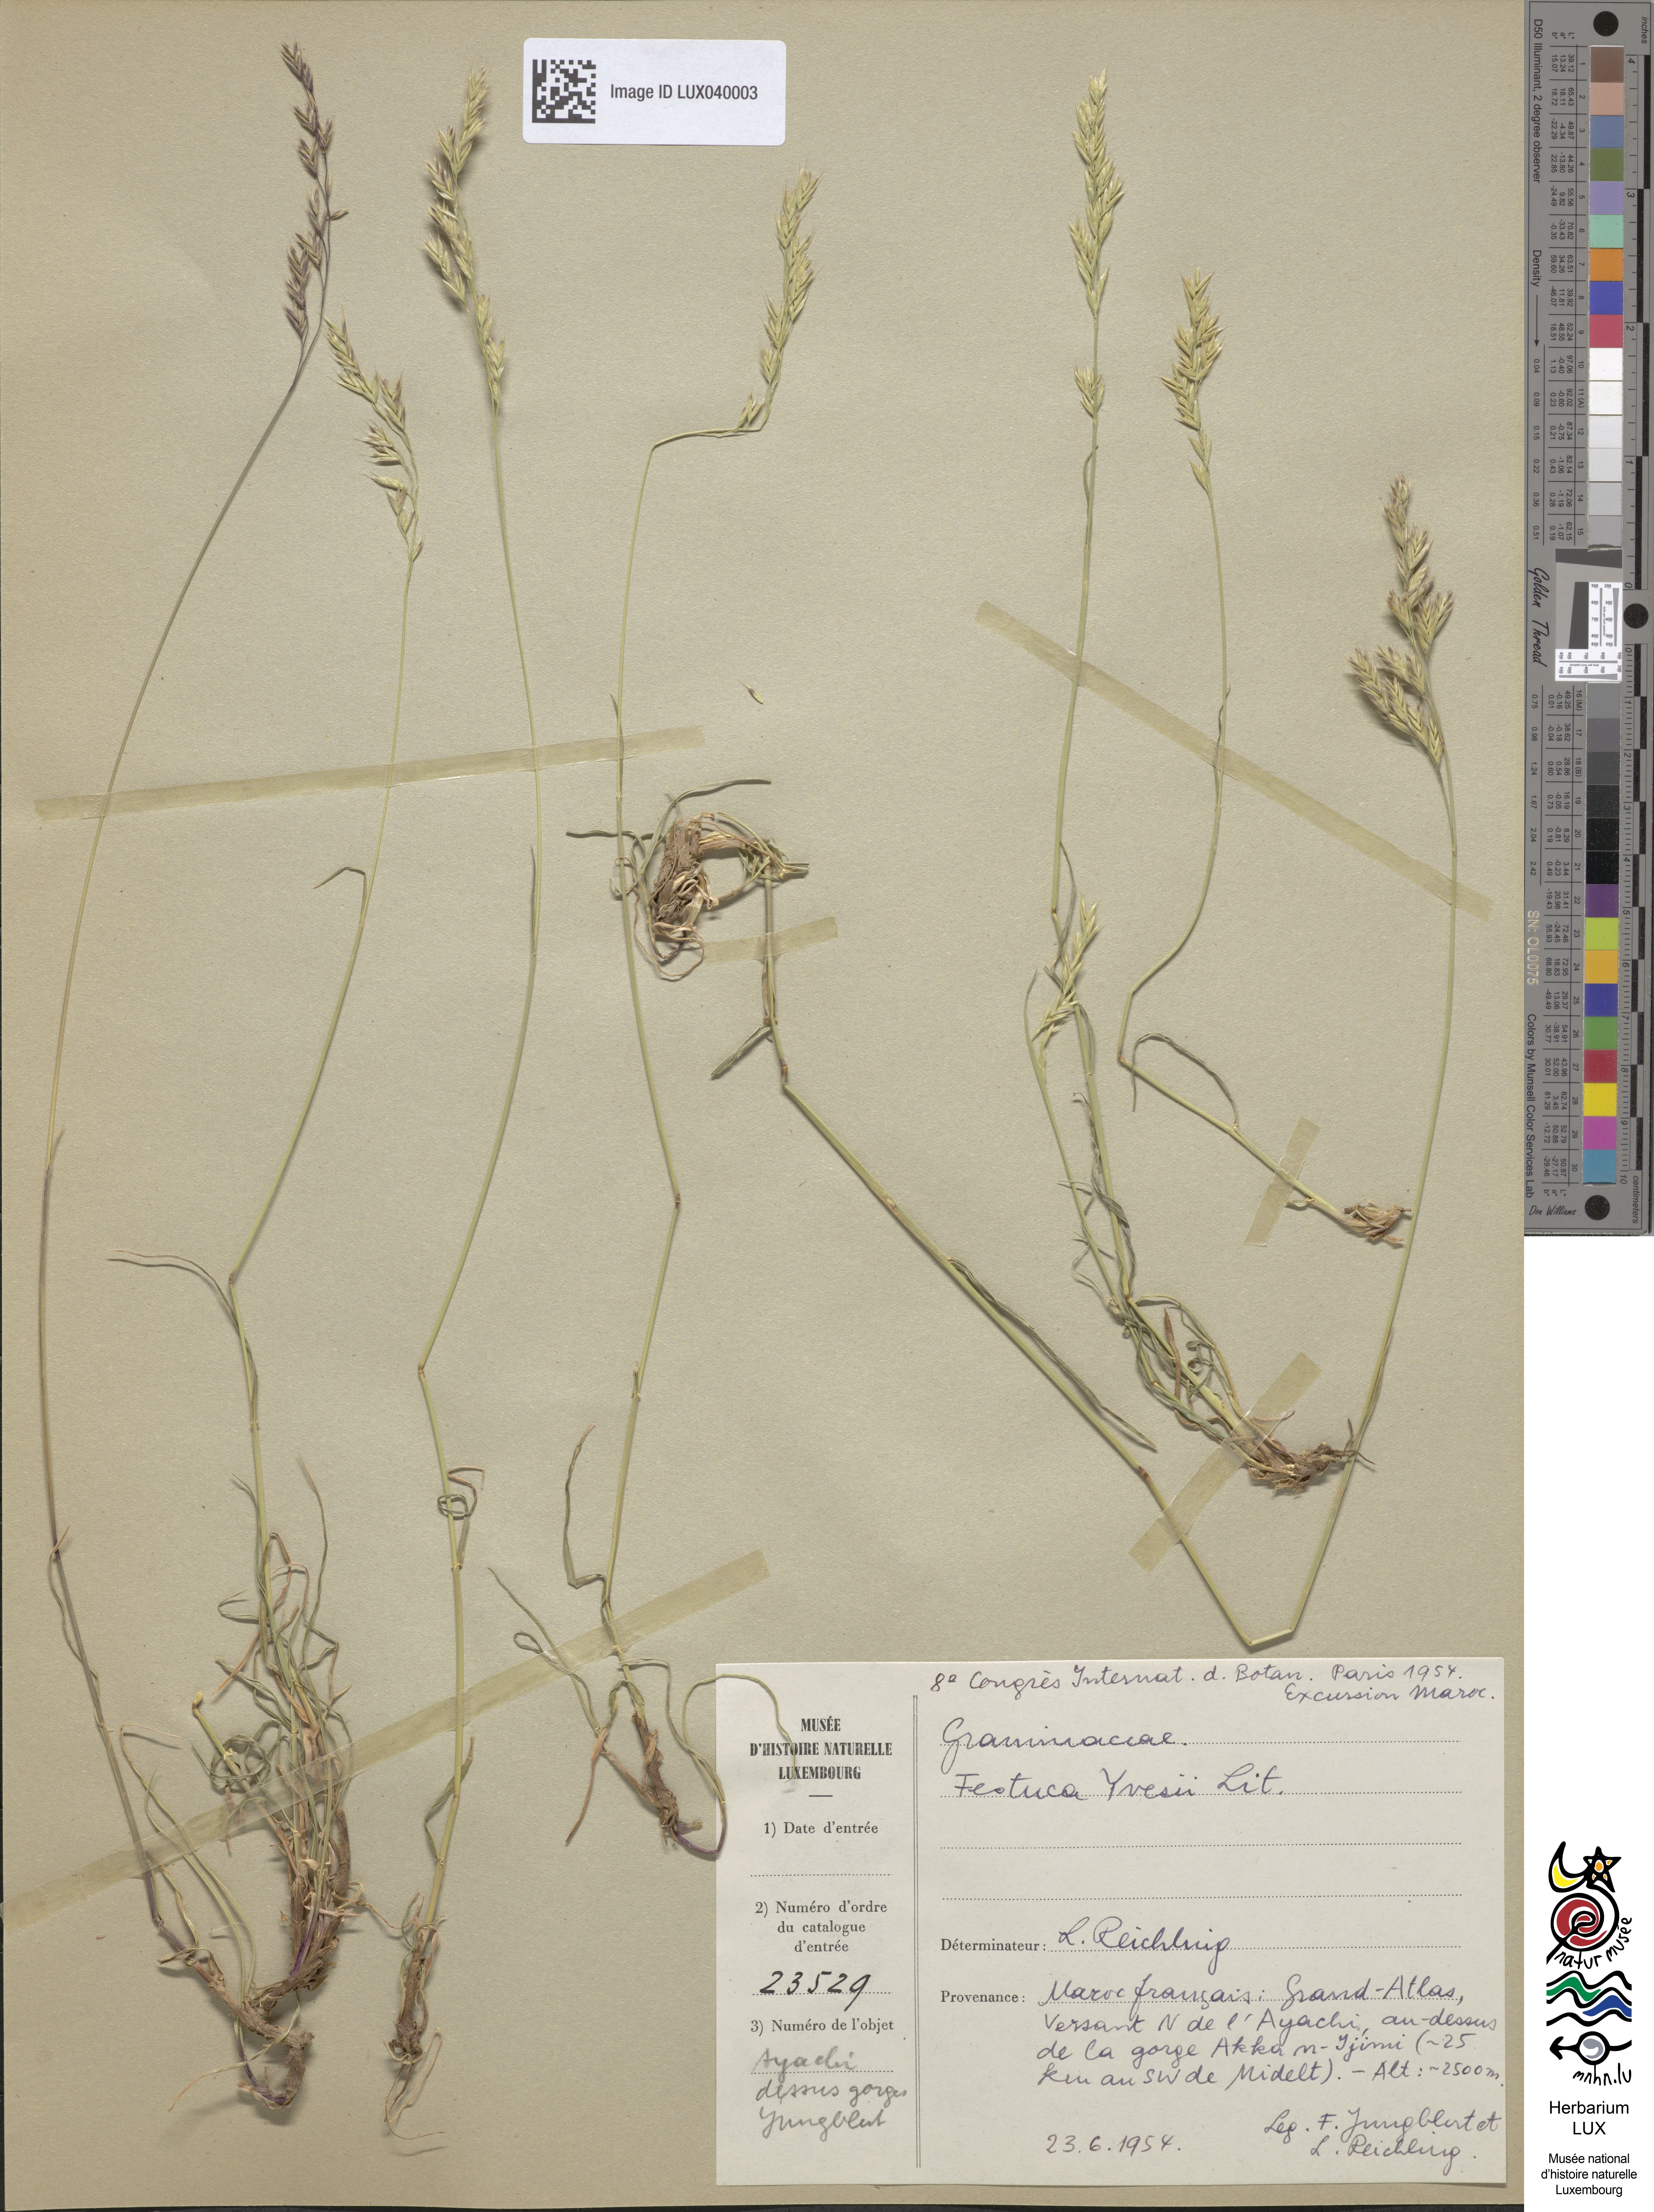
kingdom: Plantae
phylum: Tracheophyta
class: Liliopsida
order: Poales
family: Poaceae
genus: Lolium
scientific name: Lolium font-queri
